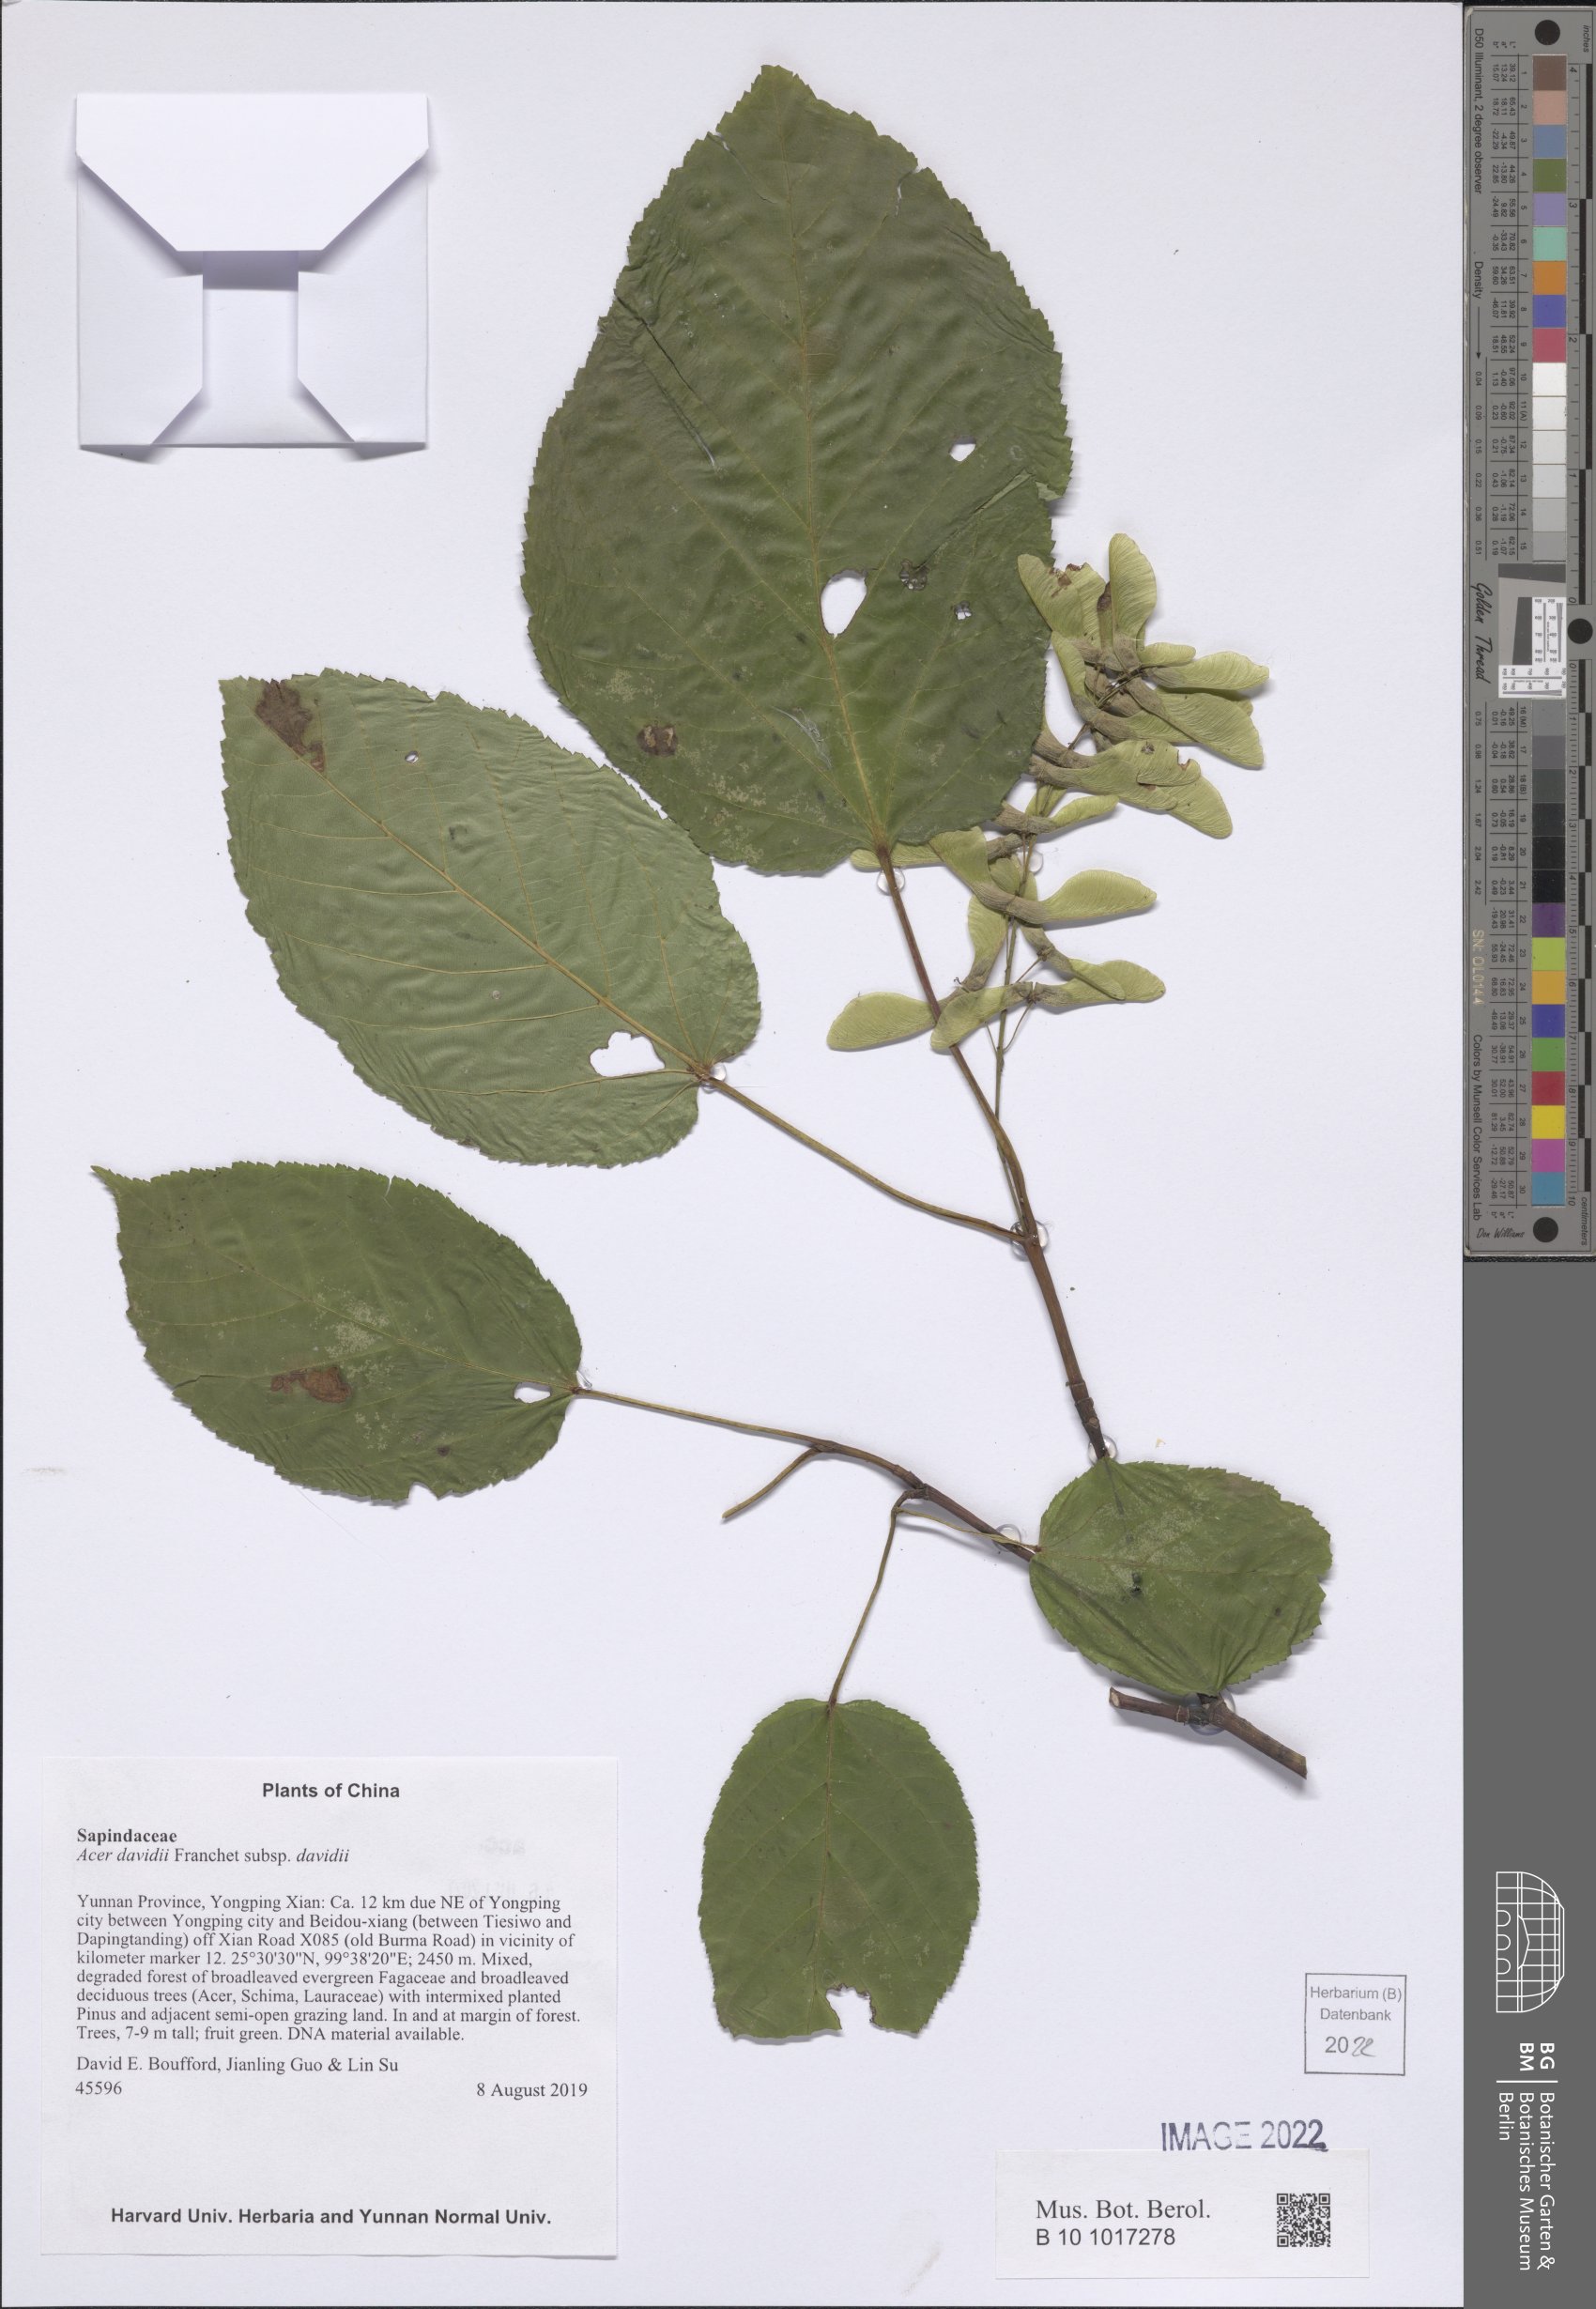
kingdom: Plantae
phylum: Tracheophyta
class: Magnoliopsida
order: Sapindales
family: Sapindaceae
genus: Acer
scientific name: Acer davidii
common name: Father david's maple
